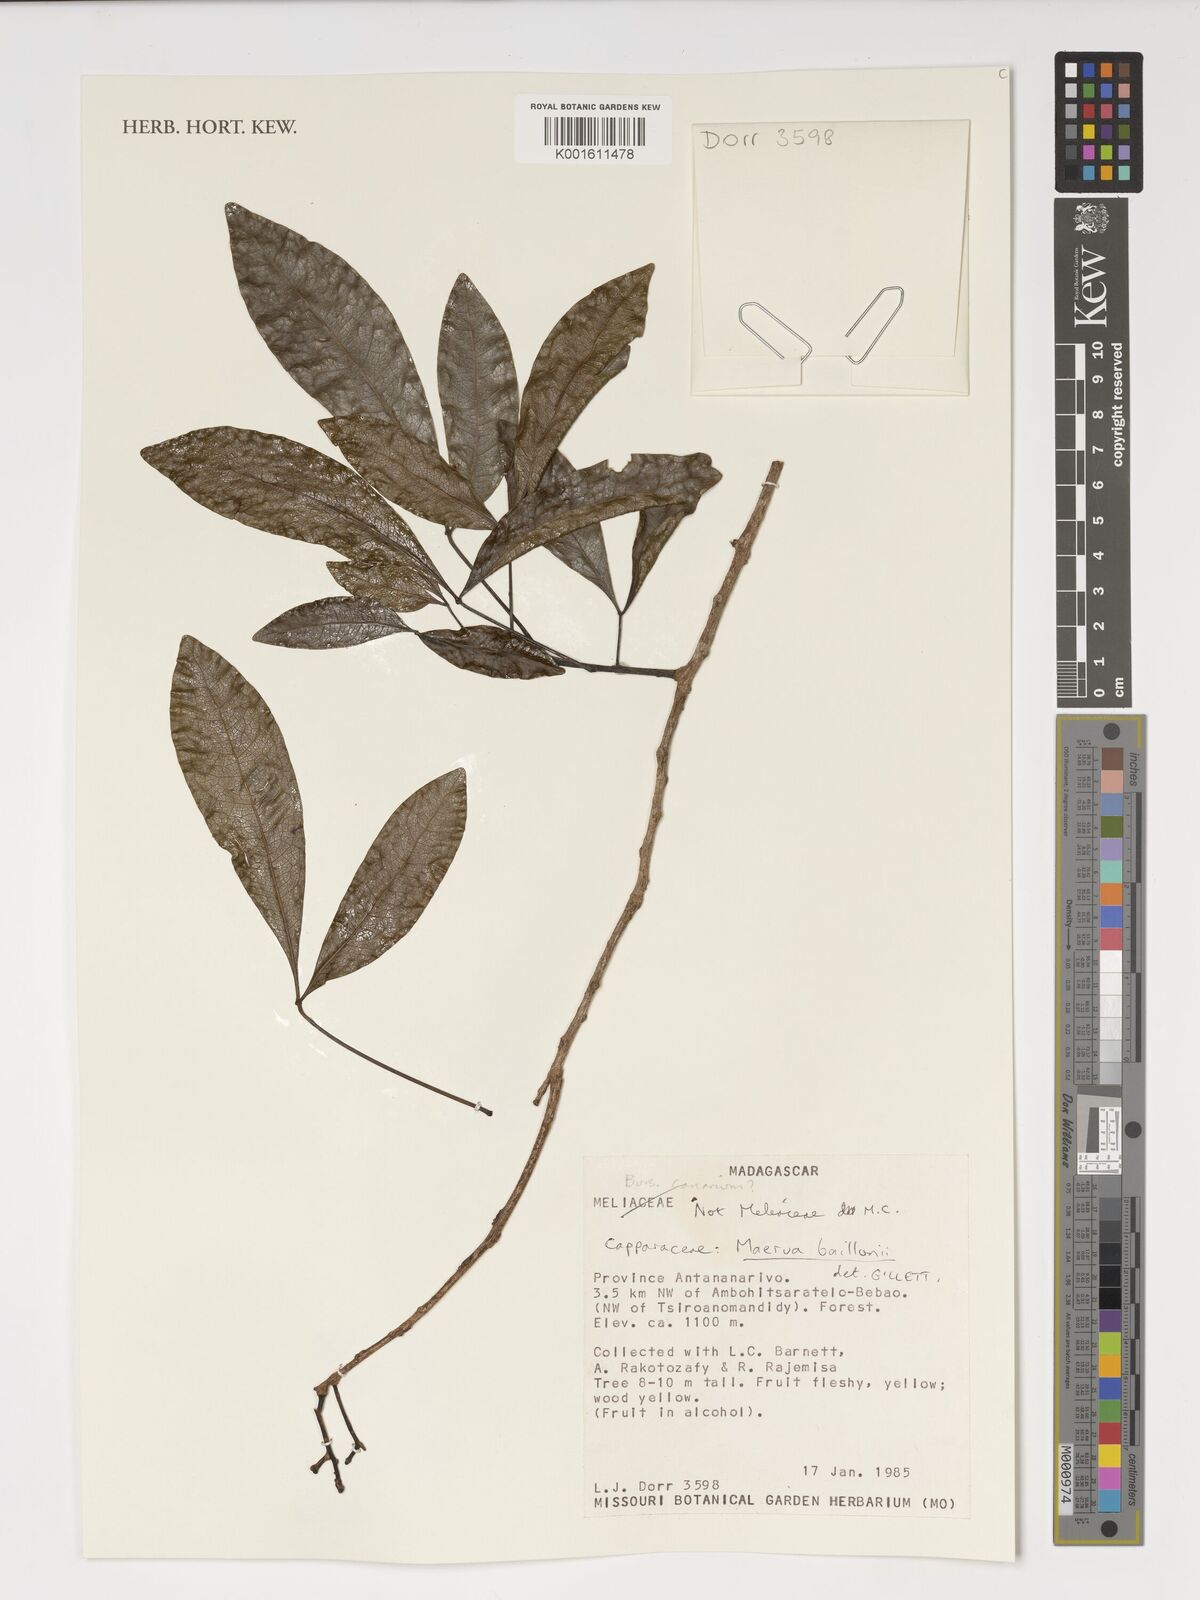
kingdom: Plantae
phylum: Tracheophyta
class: Magnoliopsida
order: Brassicales
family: Capparaceae
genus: Maerua
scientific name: Maerua baillonii
